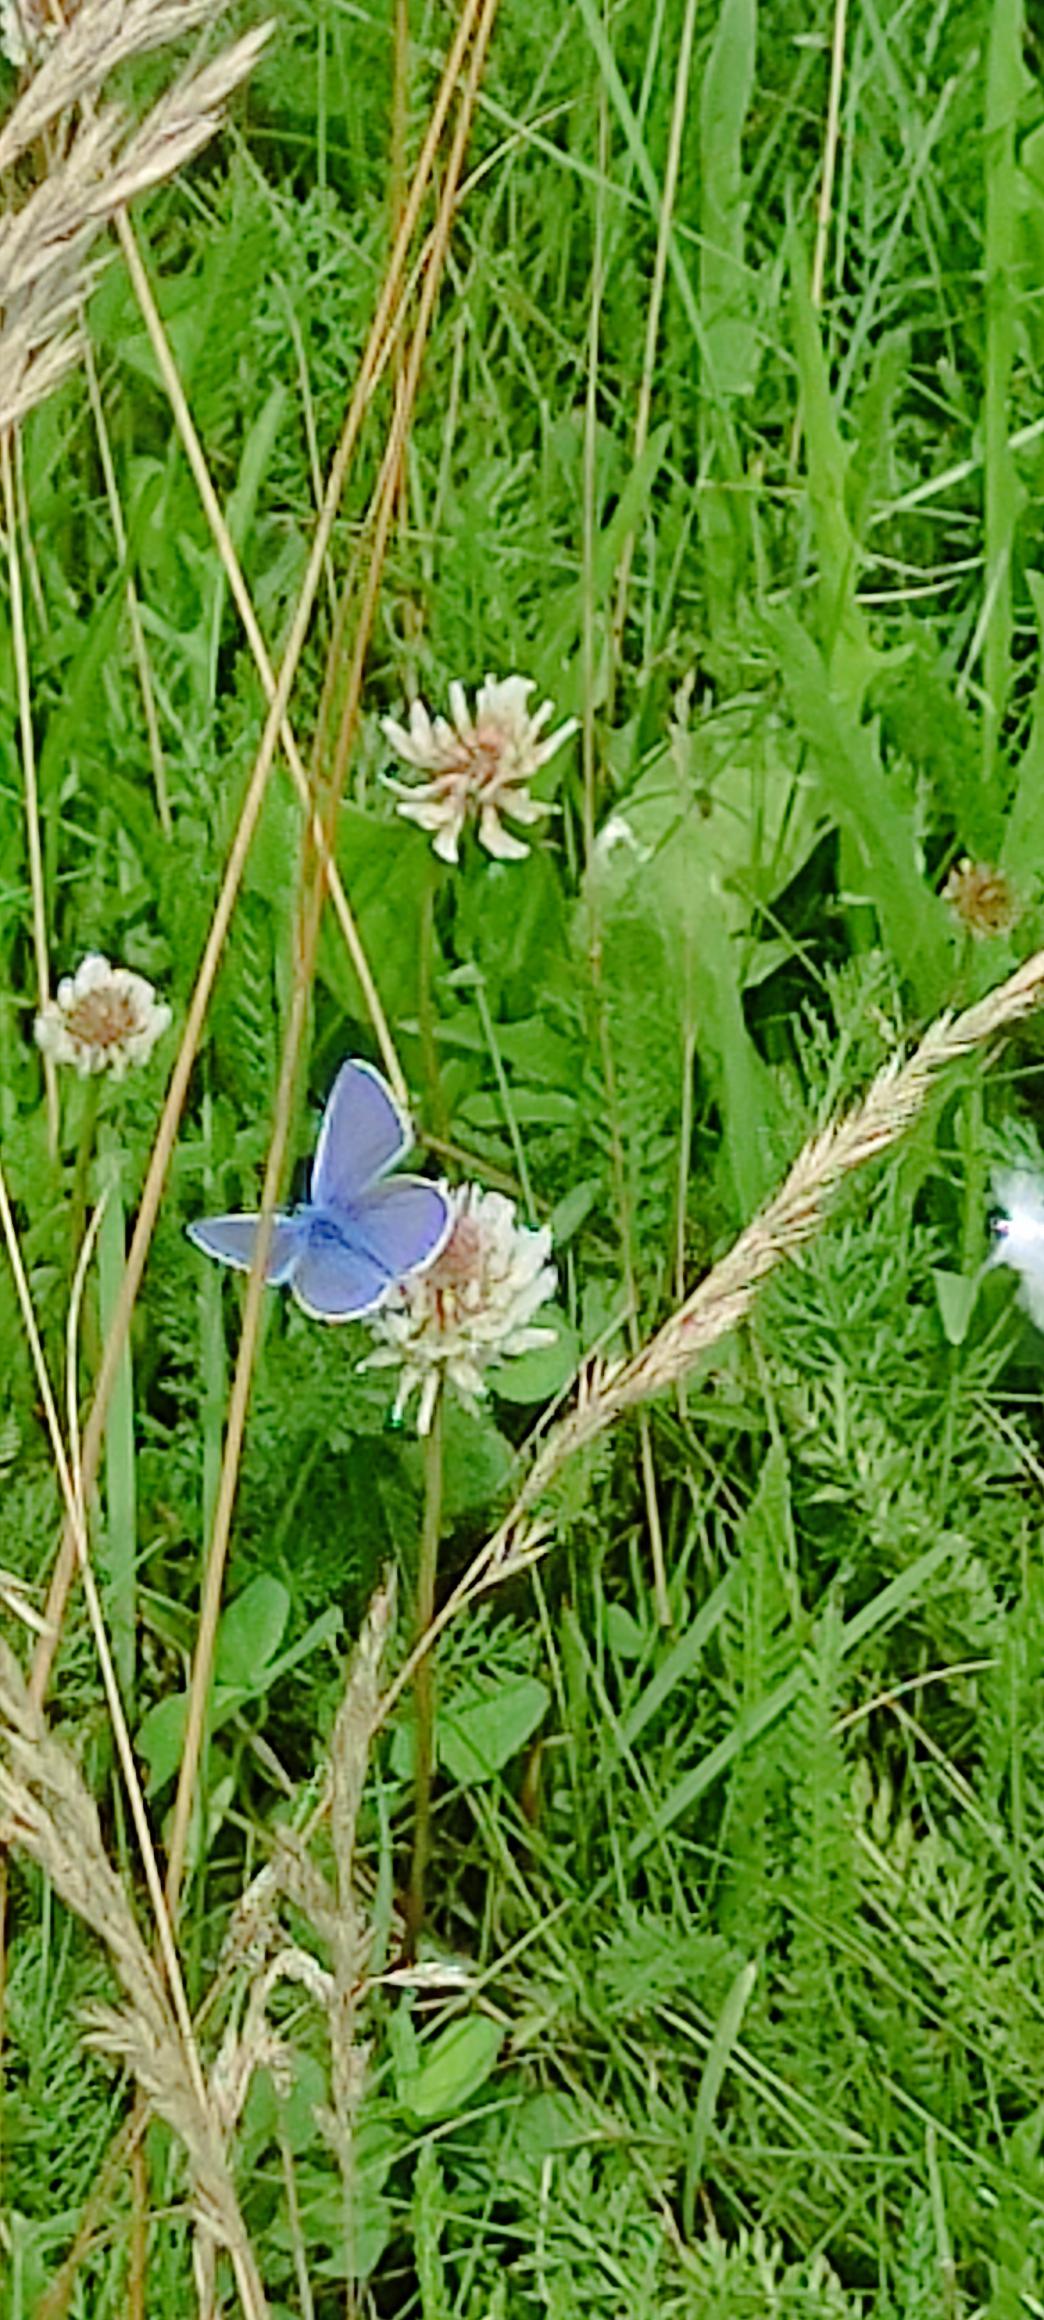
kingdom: Animalia
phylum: Arthropoda
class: Insecta
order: Lepidoptera
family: Lycaenidae
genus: Polyommatus
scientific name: Polyommatus icarus
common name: Almindelig blåfugl
